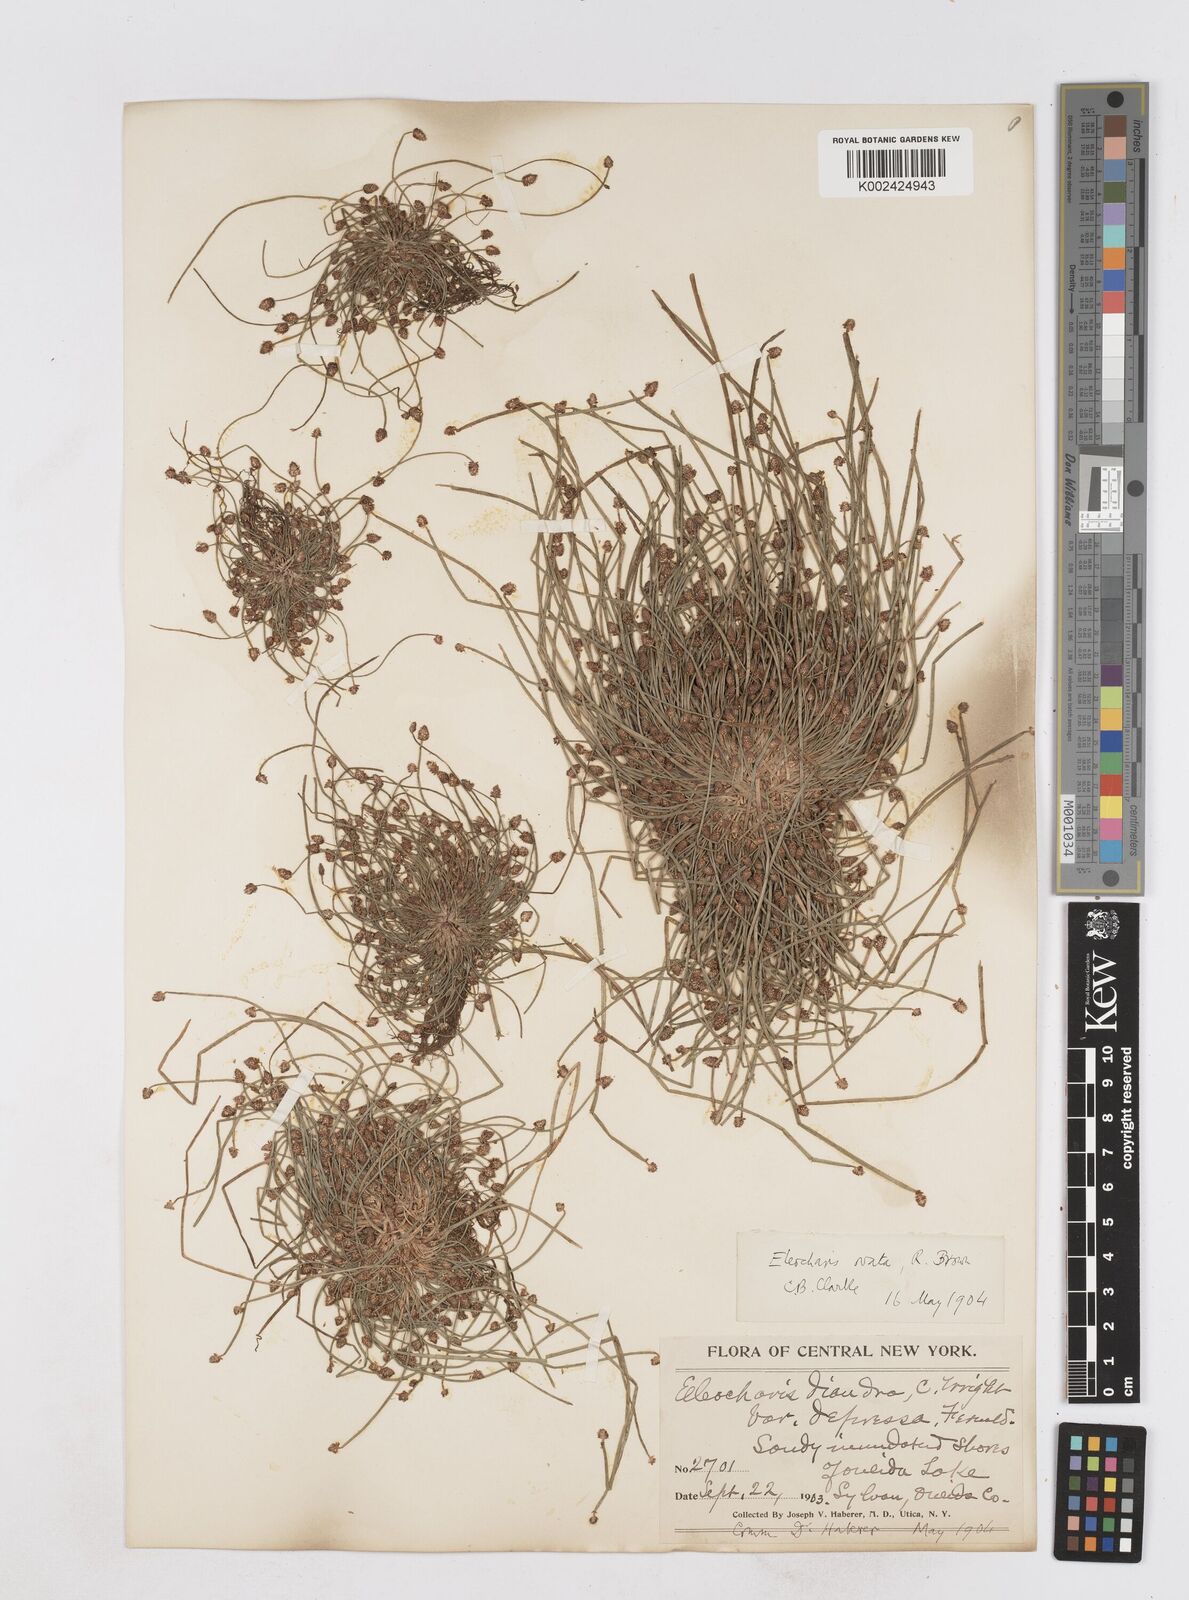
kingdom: Plantae
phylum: Tracheophyta
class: Liliopsida
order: Poales
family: Cyperaceae
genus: Eleocharis
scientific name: Eleocharis ovata
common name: Oval spike-rush
